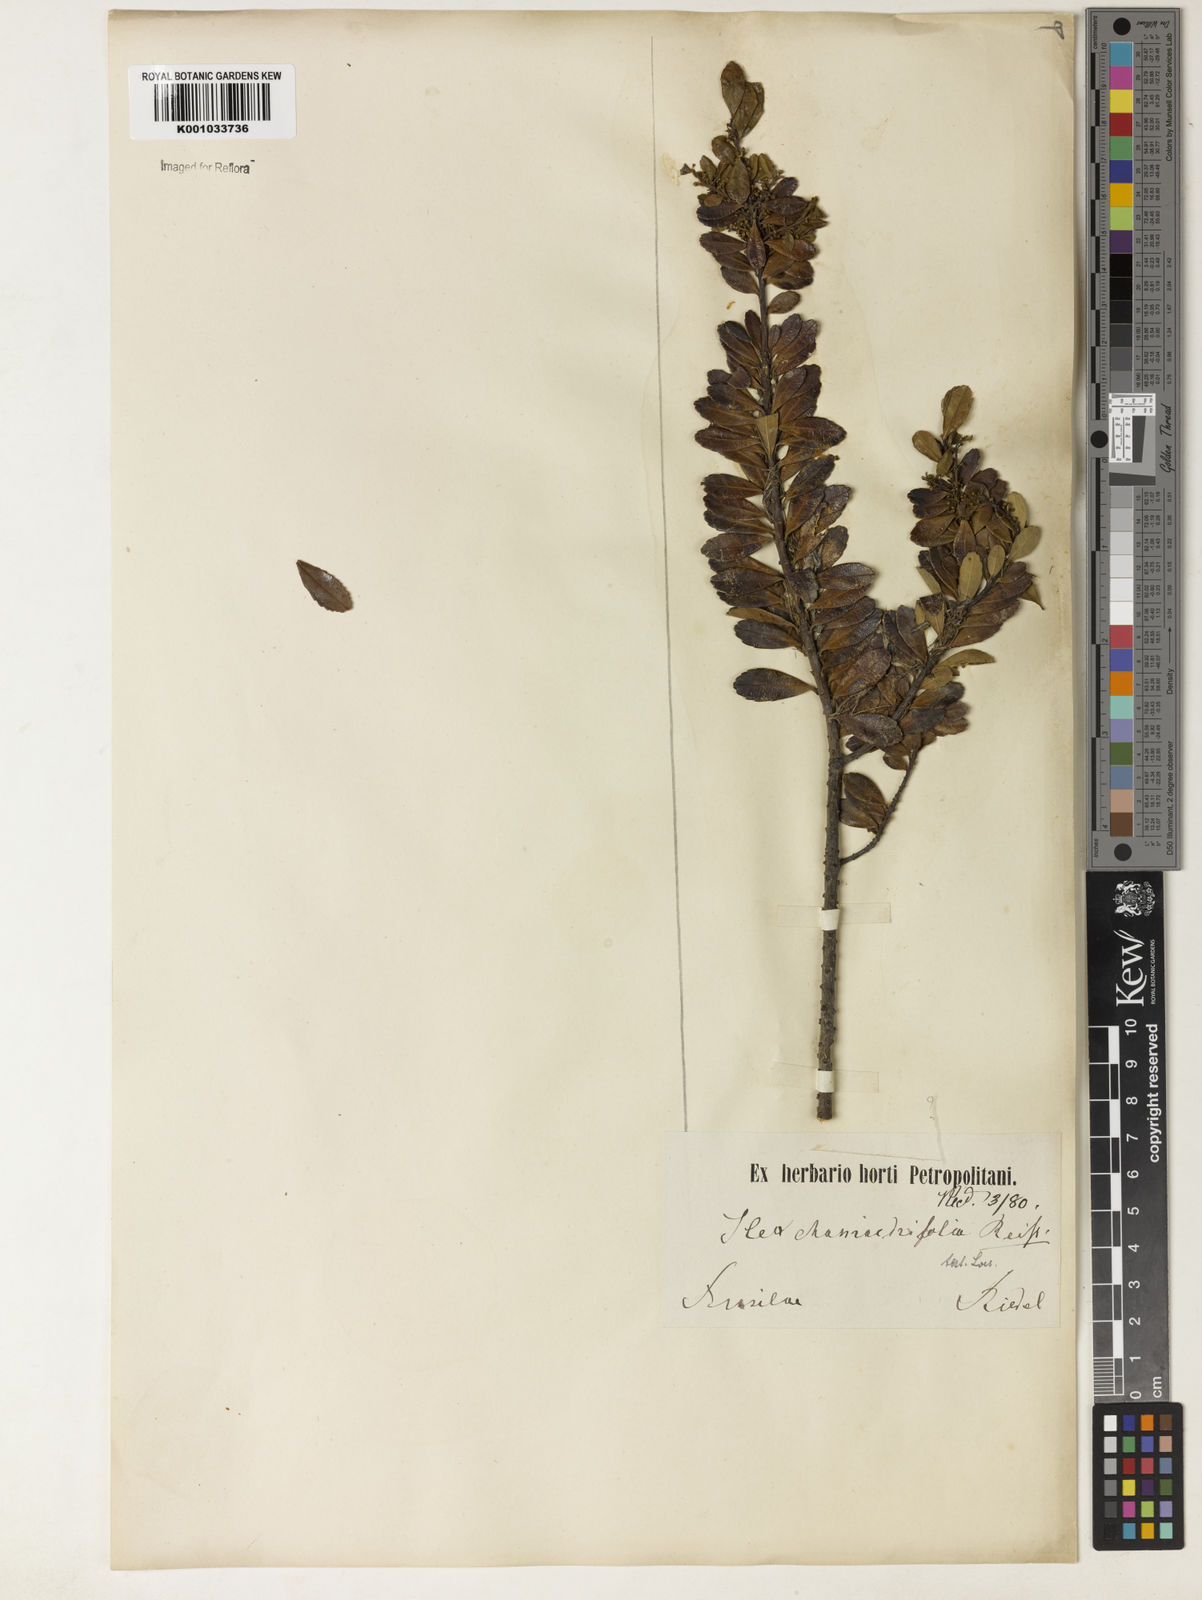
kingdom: Plantae
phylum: Tracheophyta
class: Magnoliopsida
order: Aquifoliales
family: Aquifoliaceae
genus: Ilex
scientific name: Ilex chamaedryfolia
